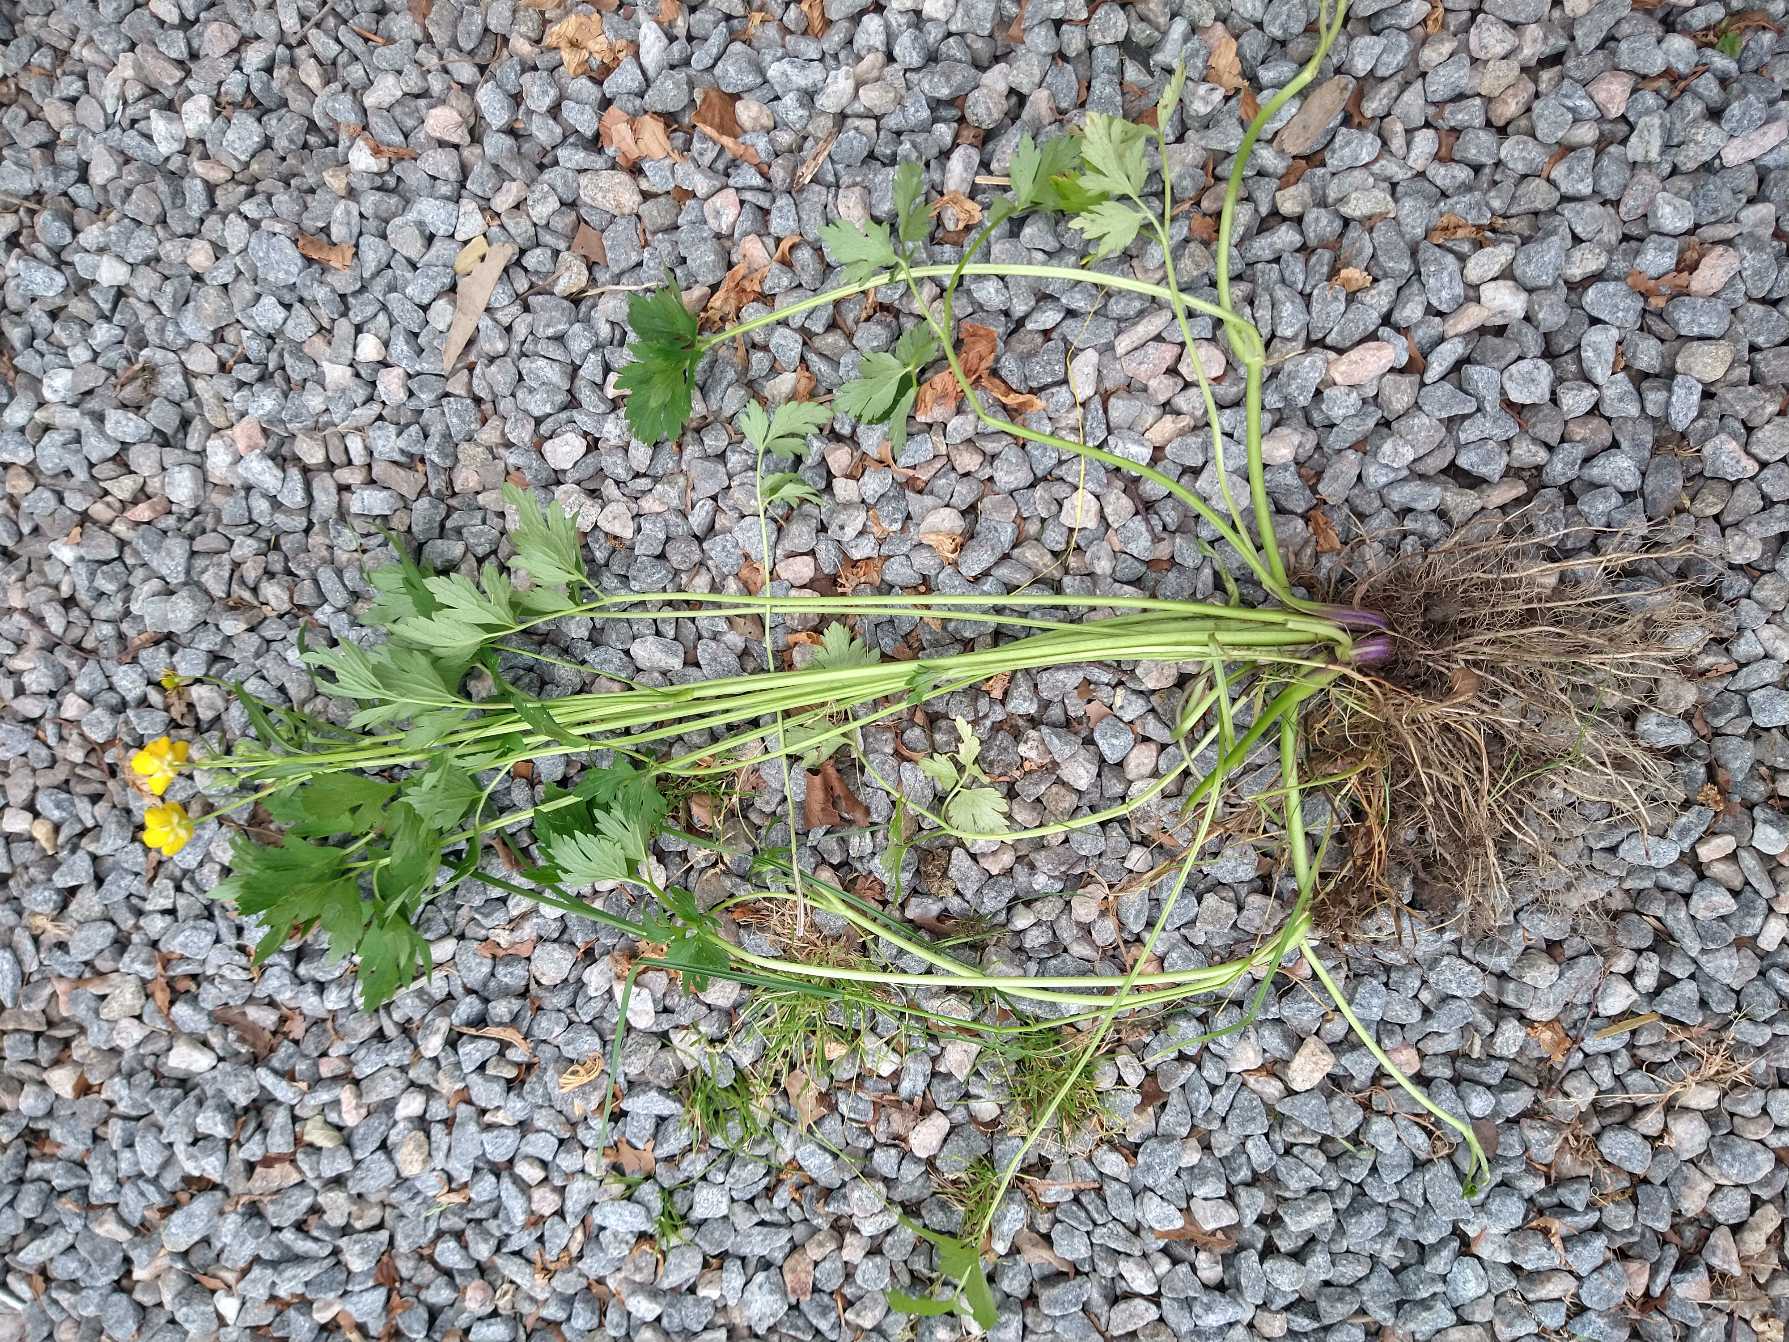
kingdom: Plantae
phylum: Tracheophyta
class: Magnoliopsida
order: Ranunculales
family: Ranunculaceae
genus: Ranunculus
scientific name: Ranunculus repens
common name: Lav ranunkel
